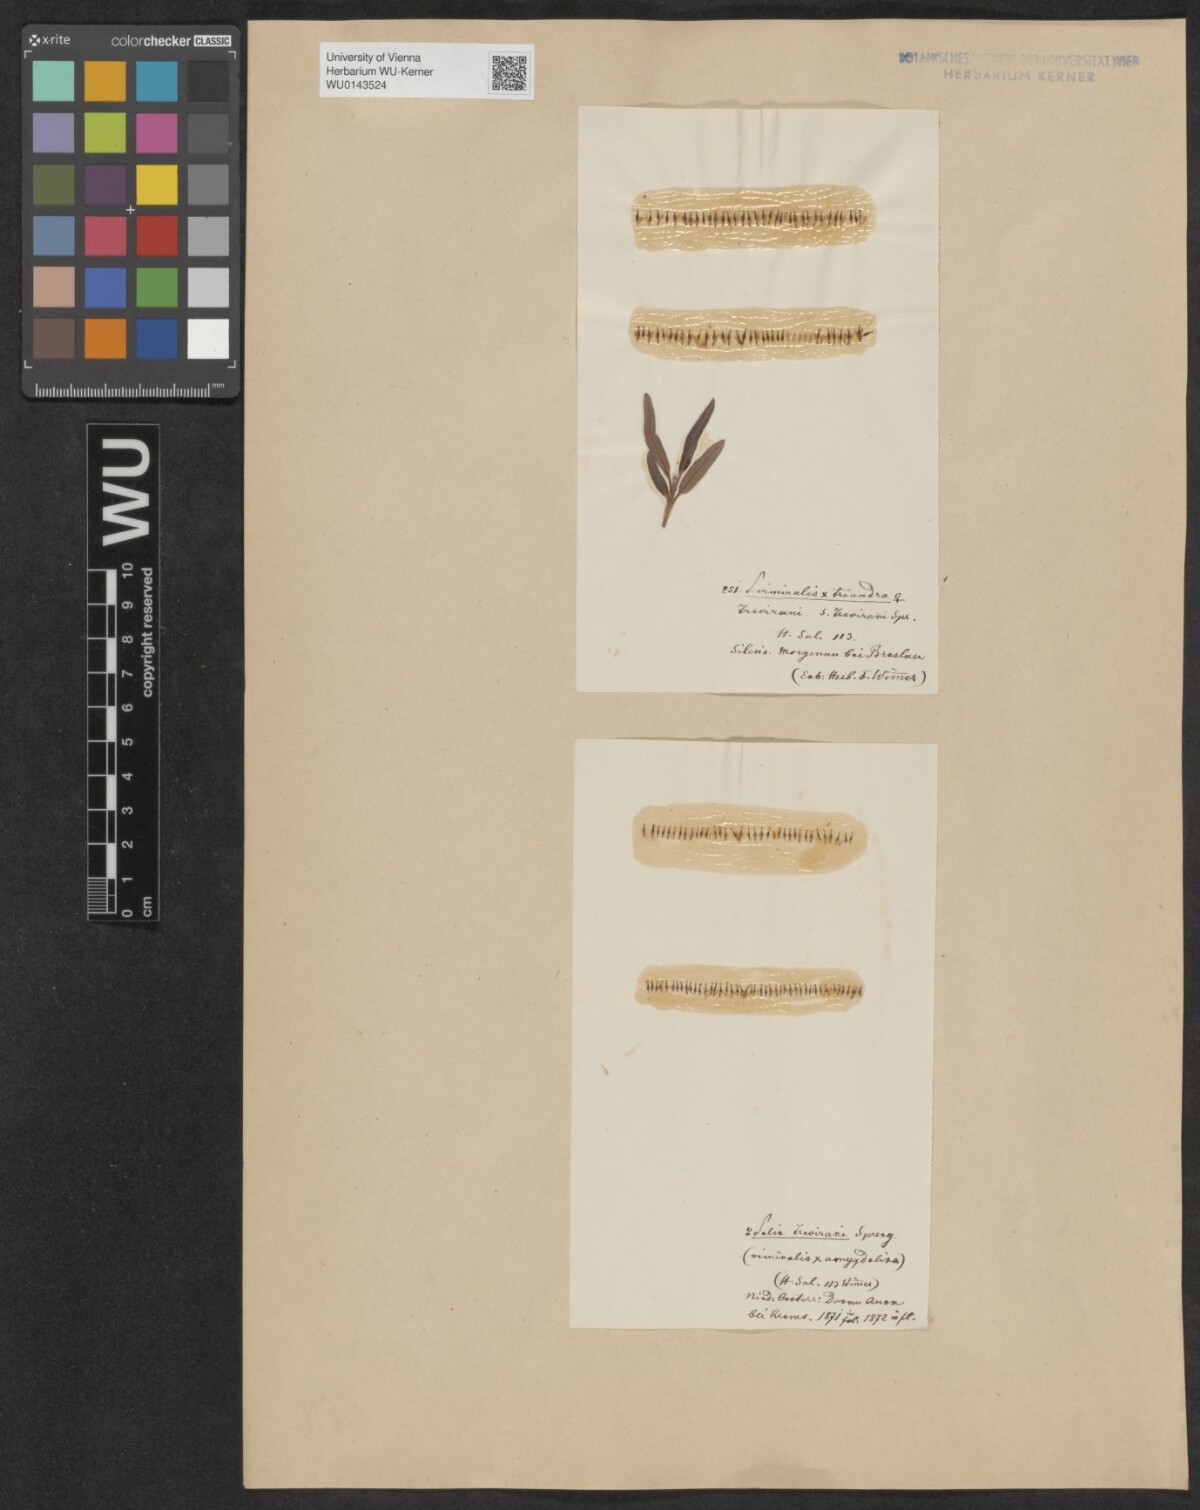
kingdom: Plantae
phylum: Tracheophyta
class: Magnoliopsida
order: Malpighiales
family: Salicaceae
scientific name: Salicaceae
